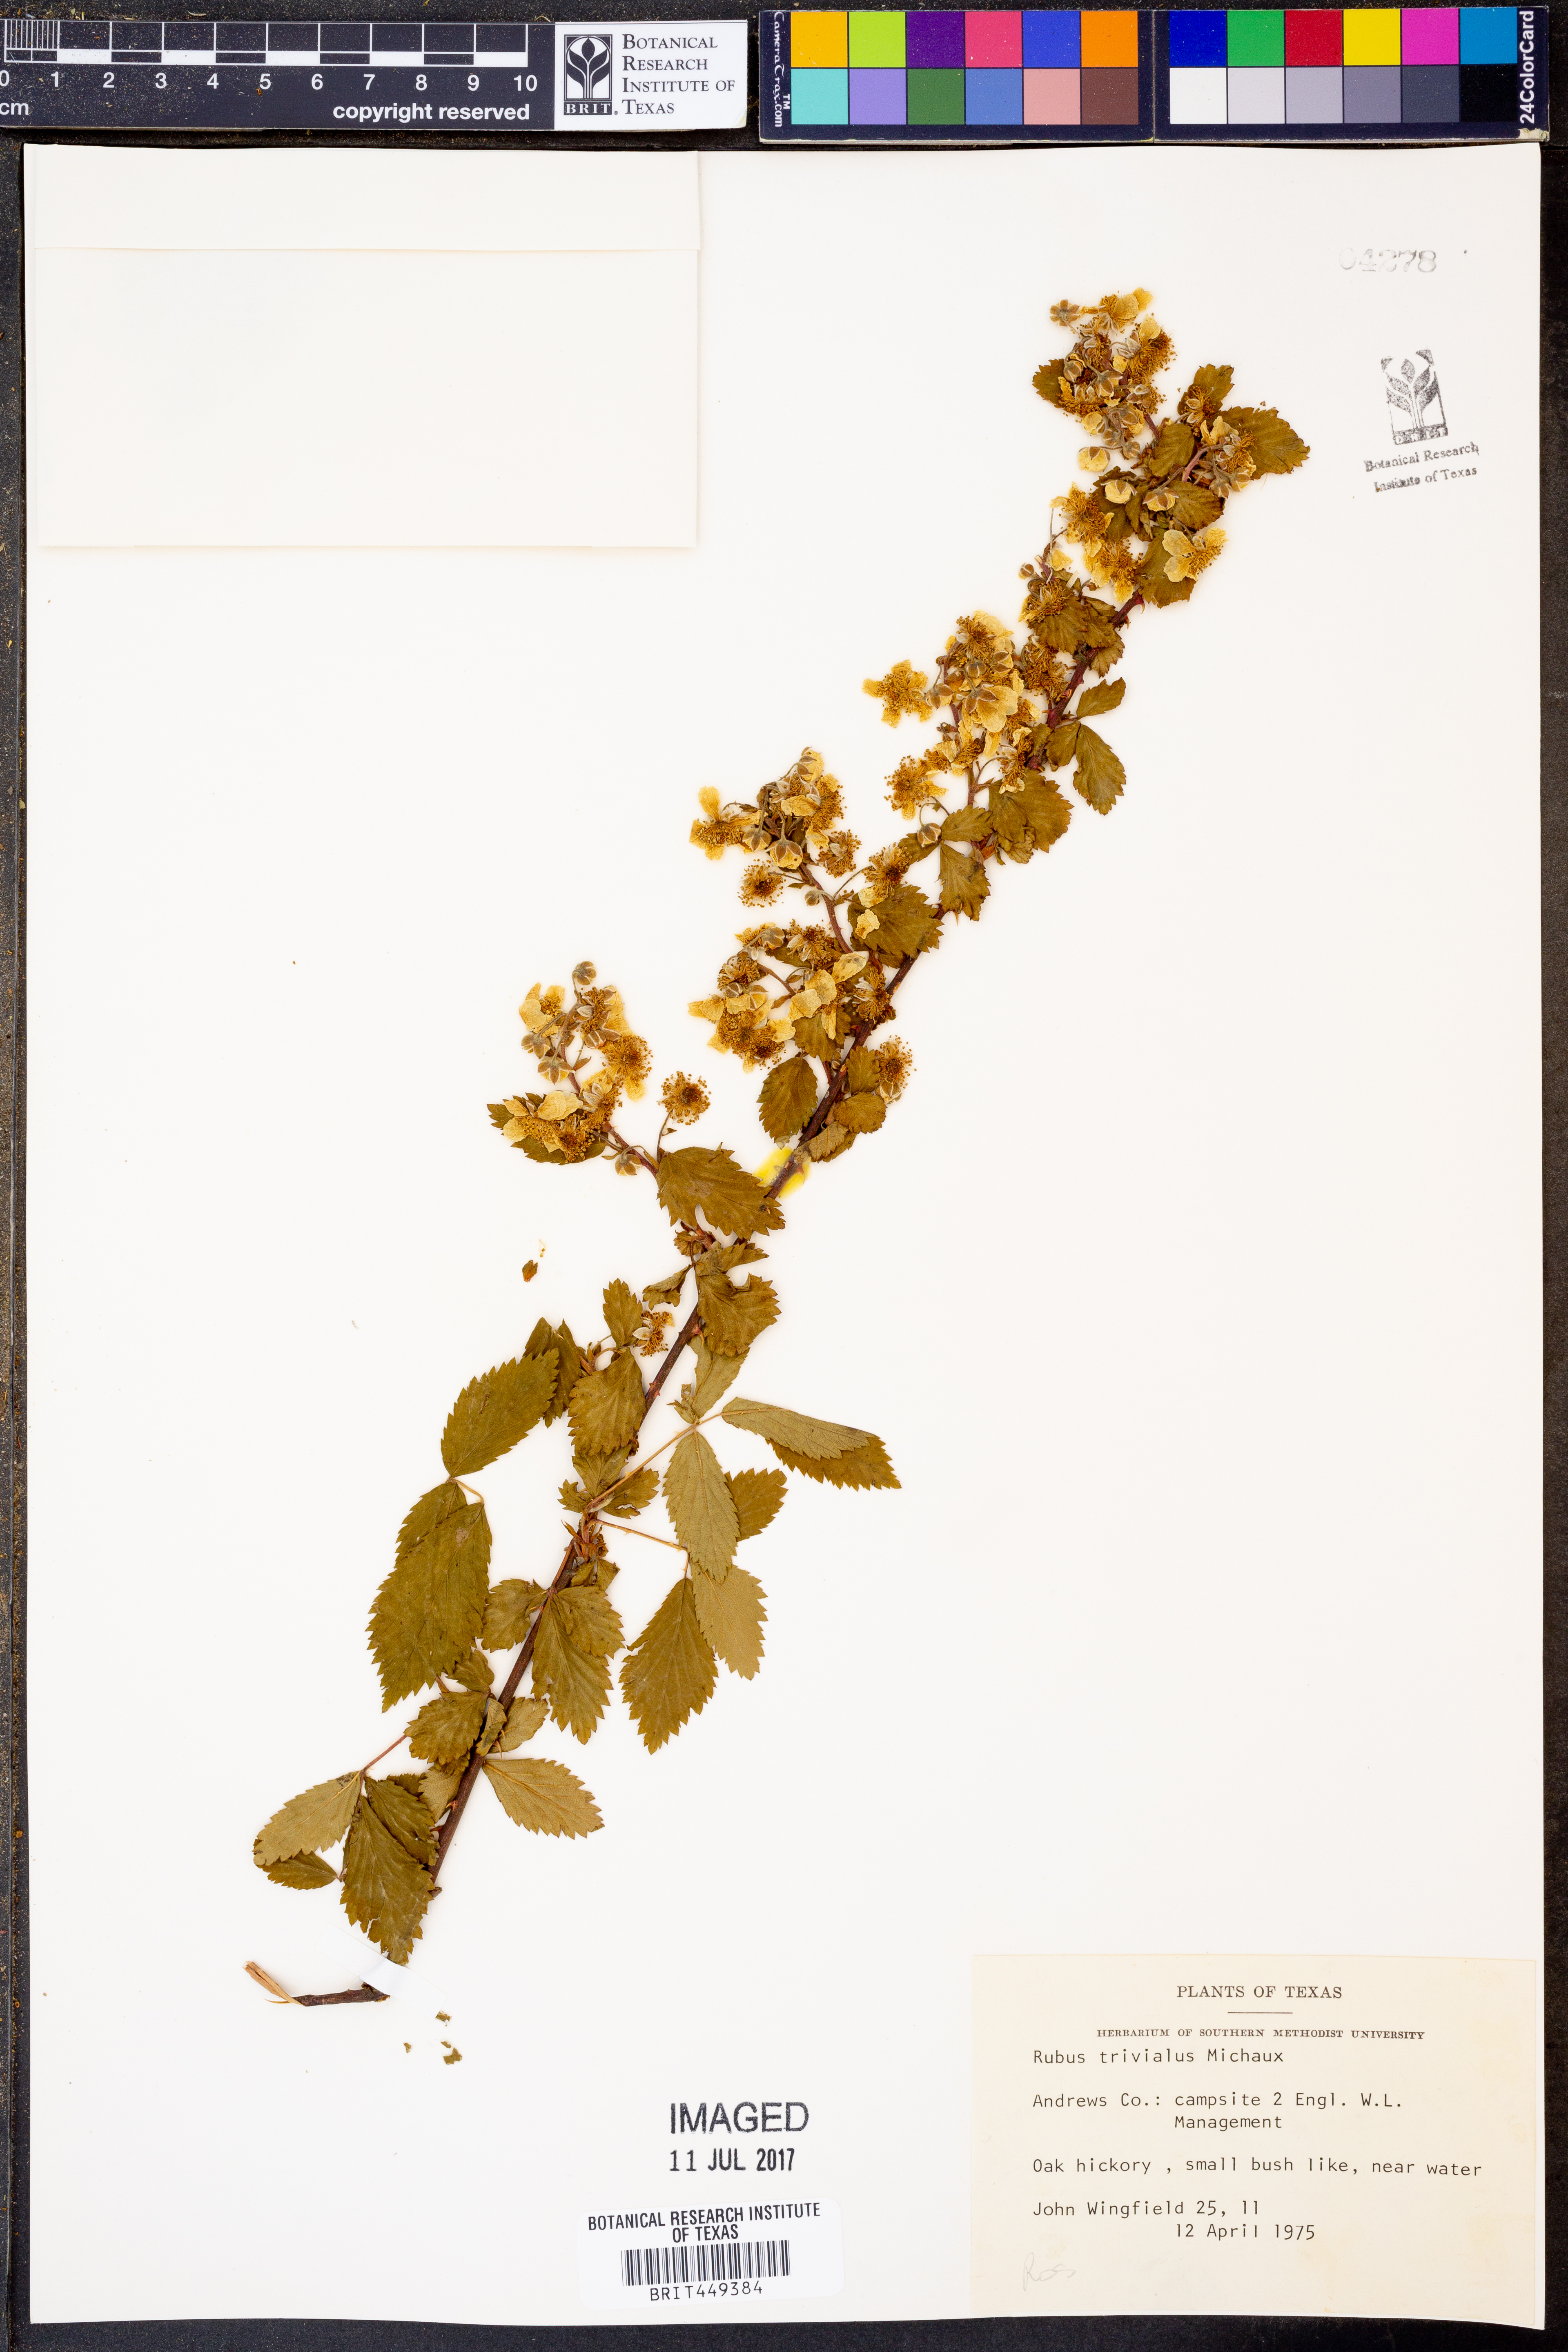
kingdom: Plantae
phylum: Tracheophyta
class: Magnoliopsida
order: Rosales
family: Rosaceae
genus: Rubus
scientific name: Rubus trivialis
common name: Southern dewberry
